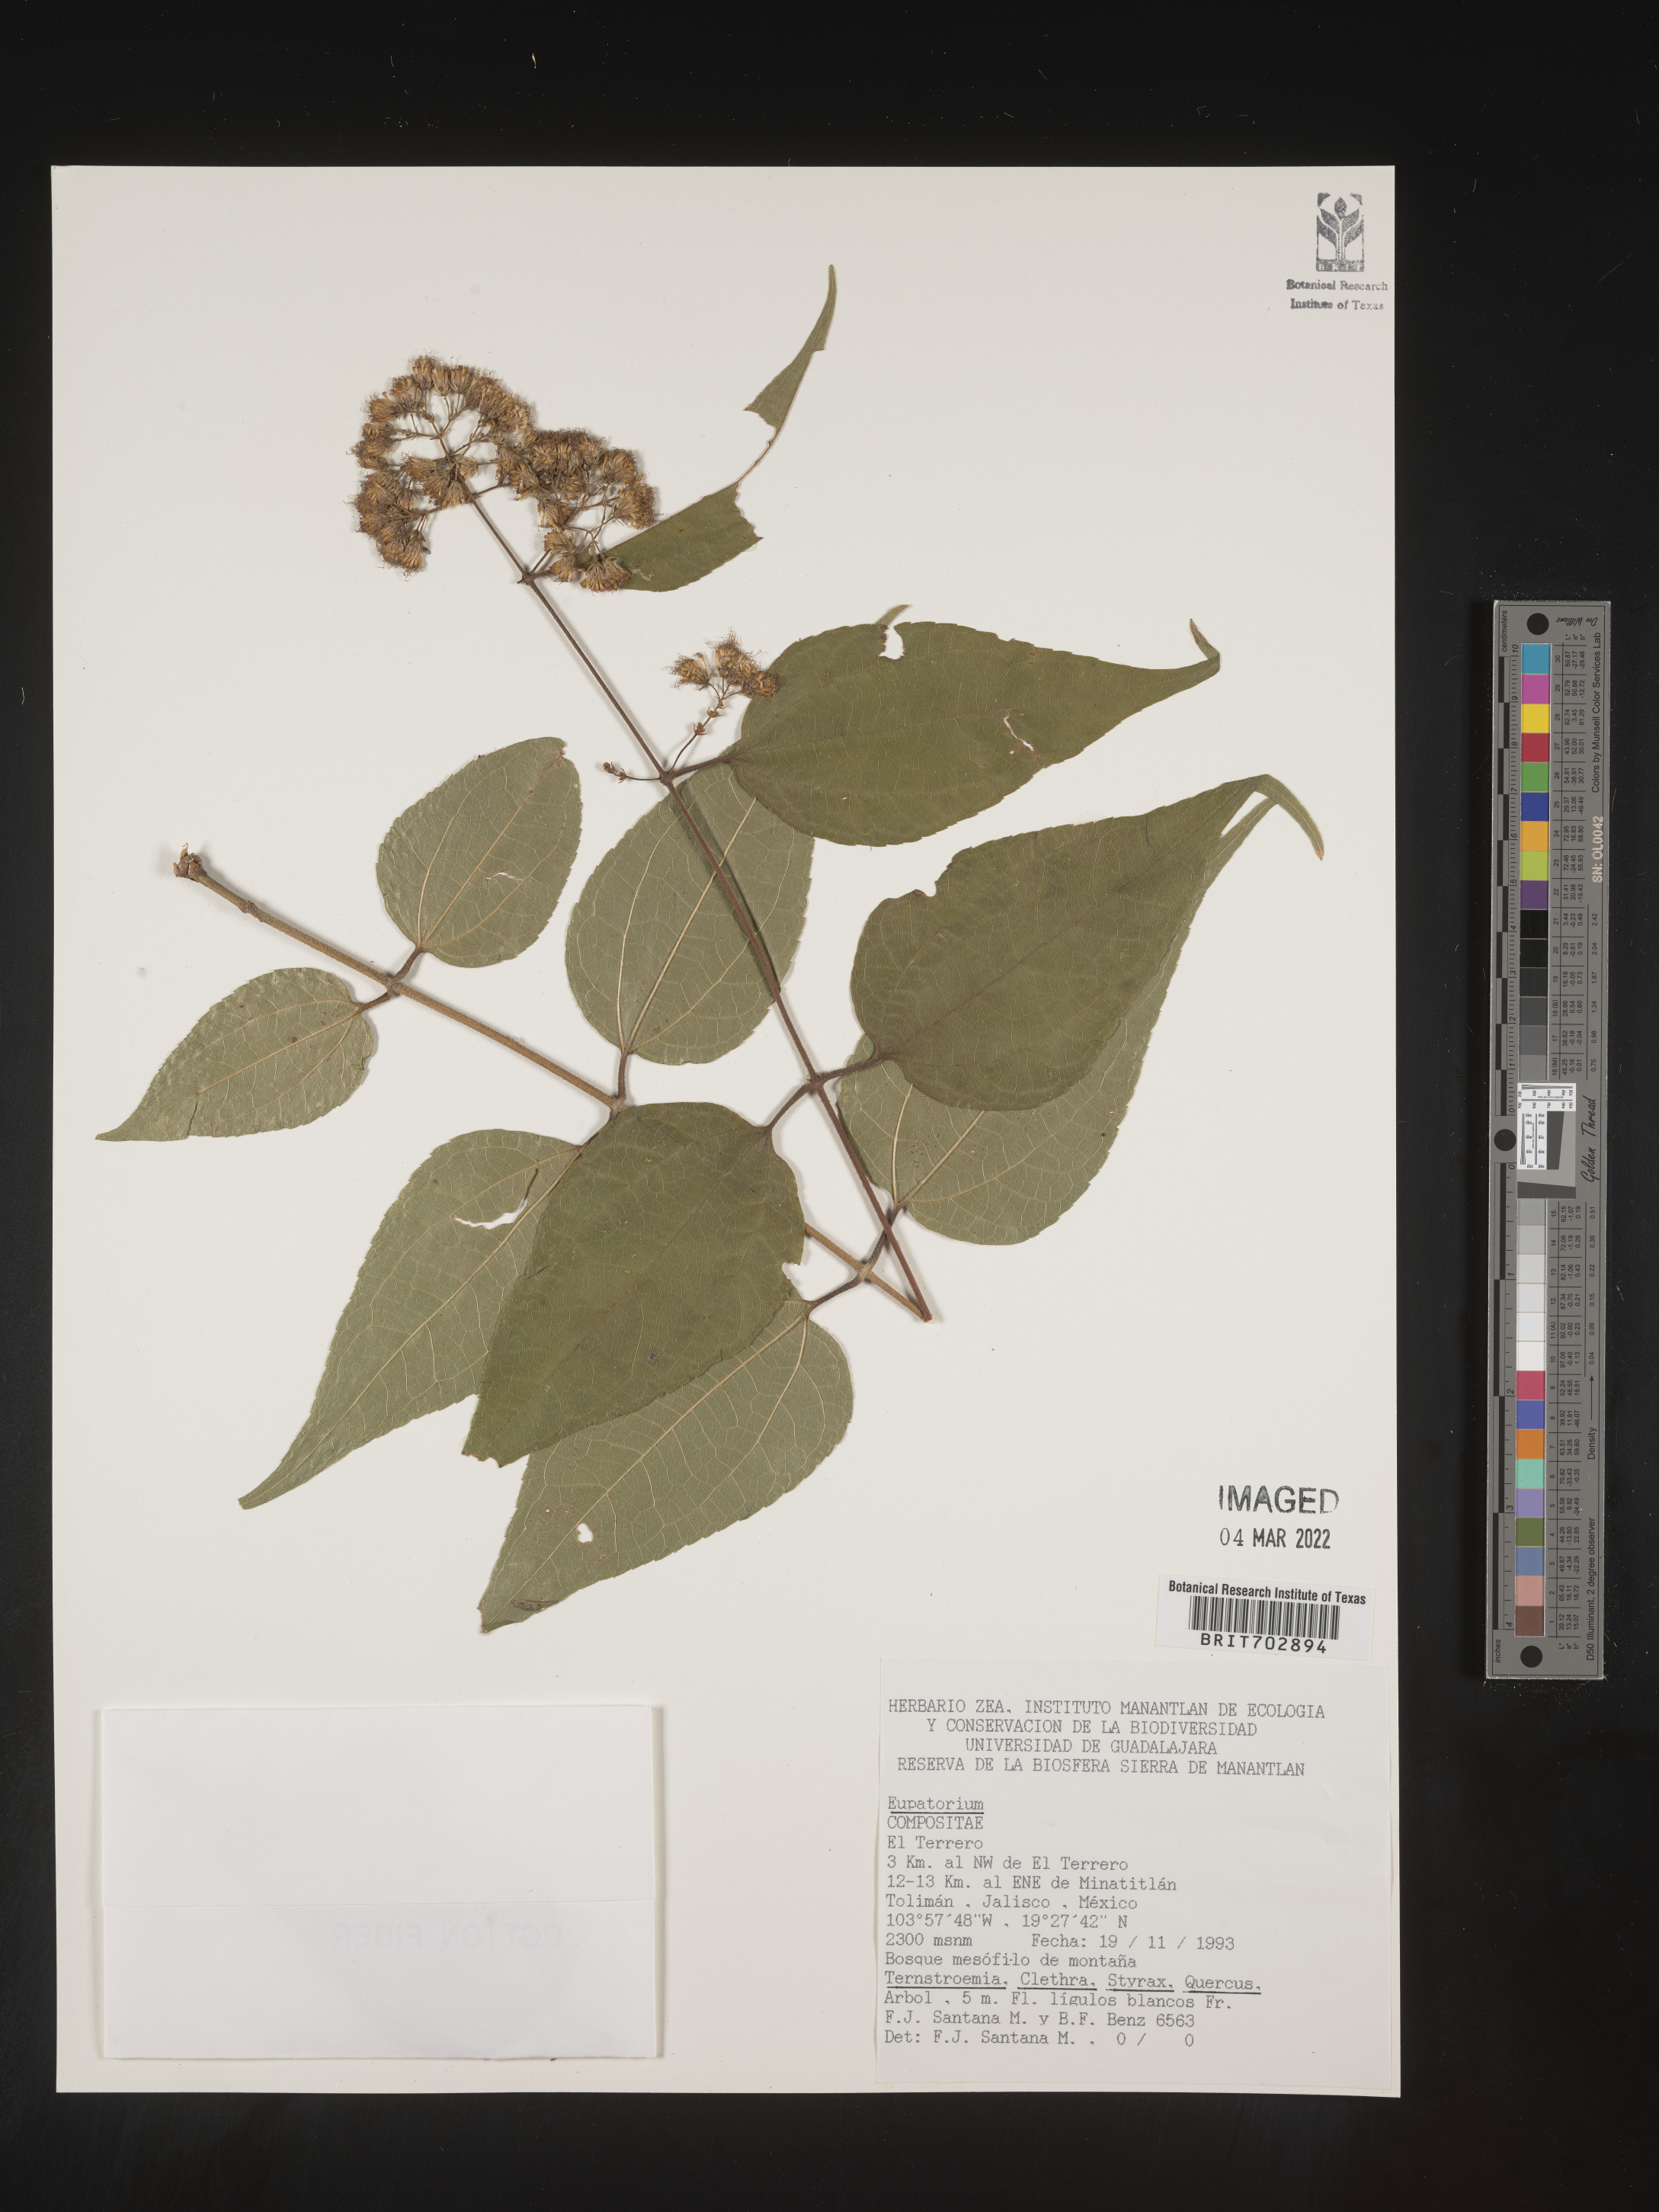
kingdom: Plantae
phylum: Tracheophyta
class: Magnoliopsida
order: Asterales
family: Asteraceae
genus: Eupatorium
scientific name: Eupatorium
